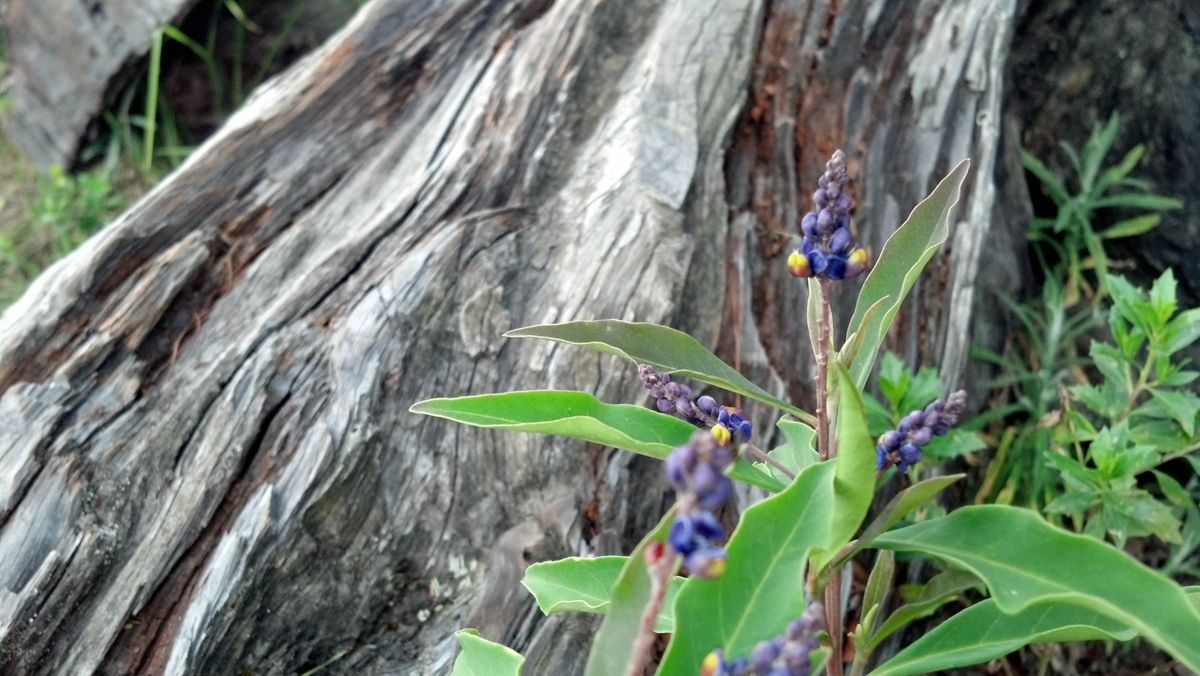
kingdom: Plantae
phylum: Tracheophyta
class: Magnoliopsida
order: Fabales
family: Polygalaceae
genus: Monnina
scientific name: Monnina xalapensis
